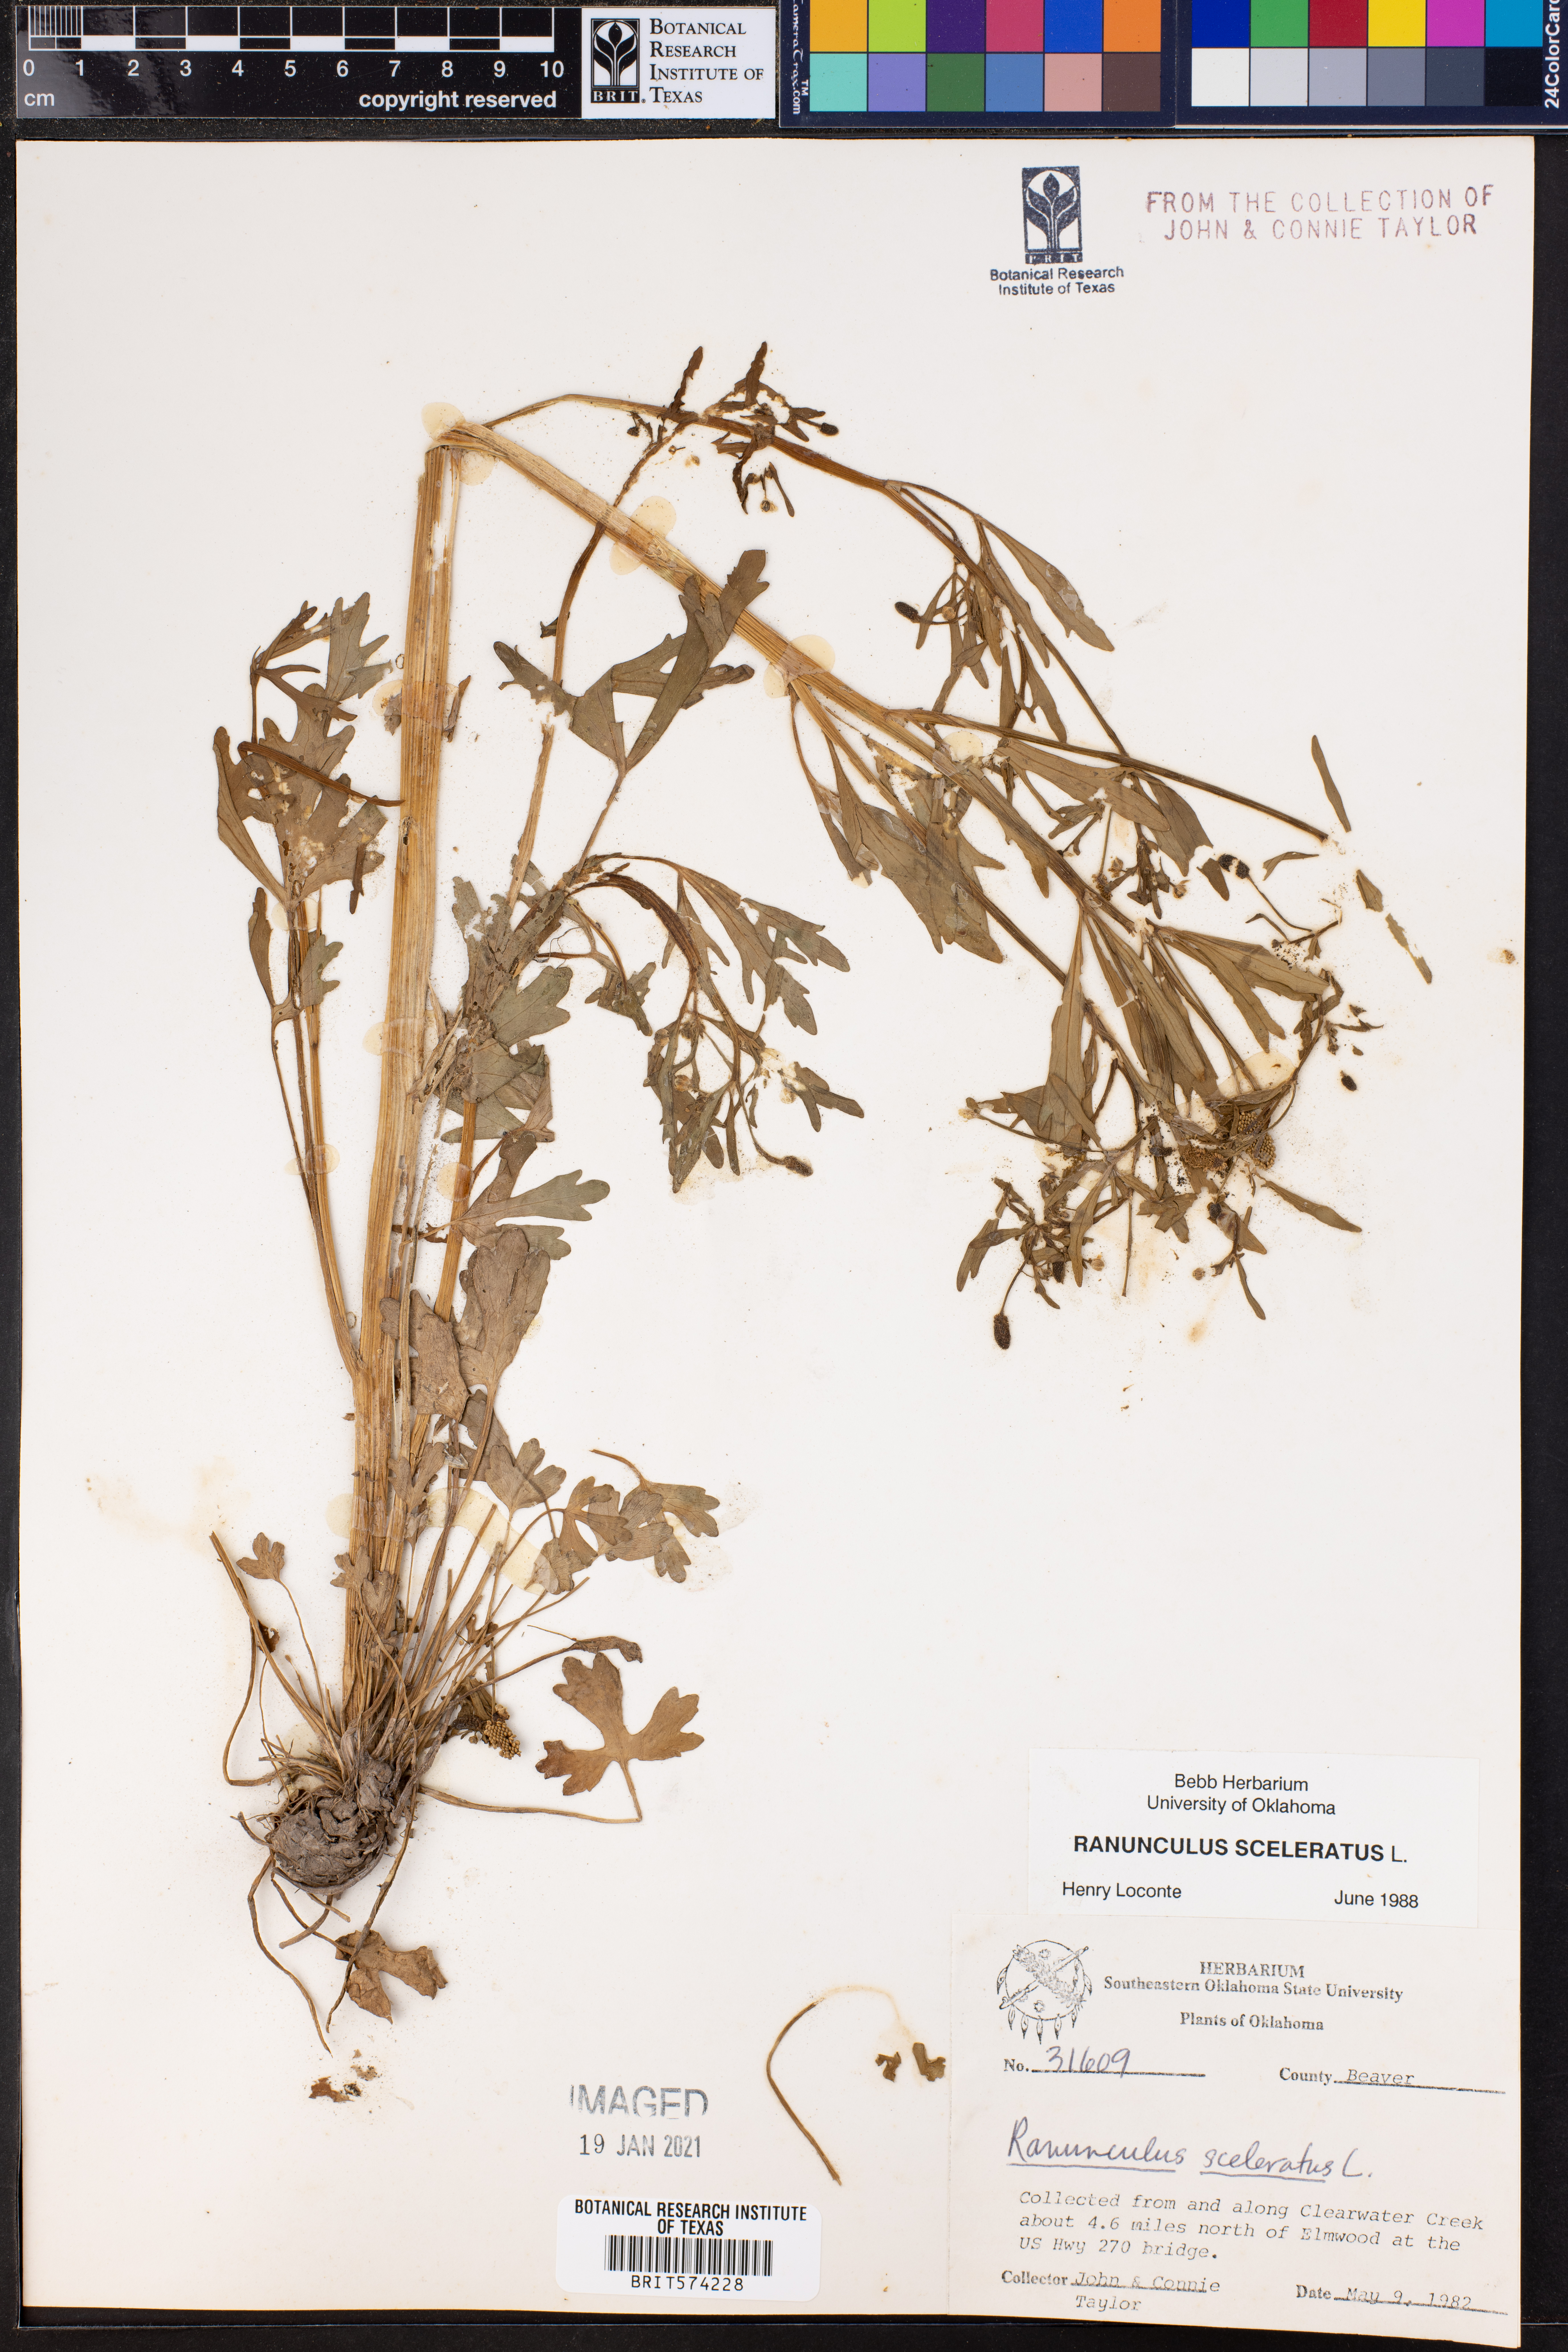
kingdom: Plantae
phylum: Tracheophyta
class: Magnoliopsida
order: Ranunculales
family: Ranunculaceae
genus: Ranunculus
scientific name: Ranunculus sceleratus
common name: Celery-leaved buttercup
